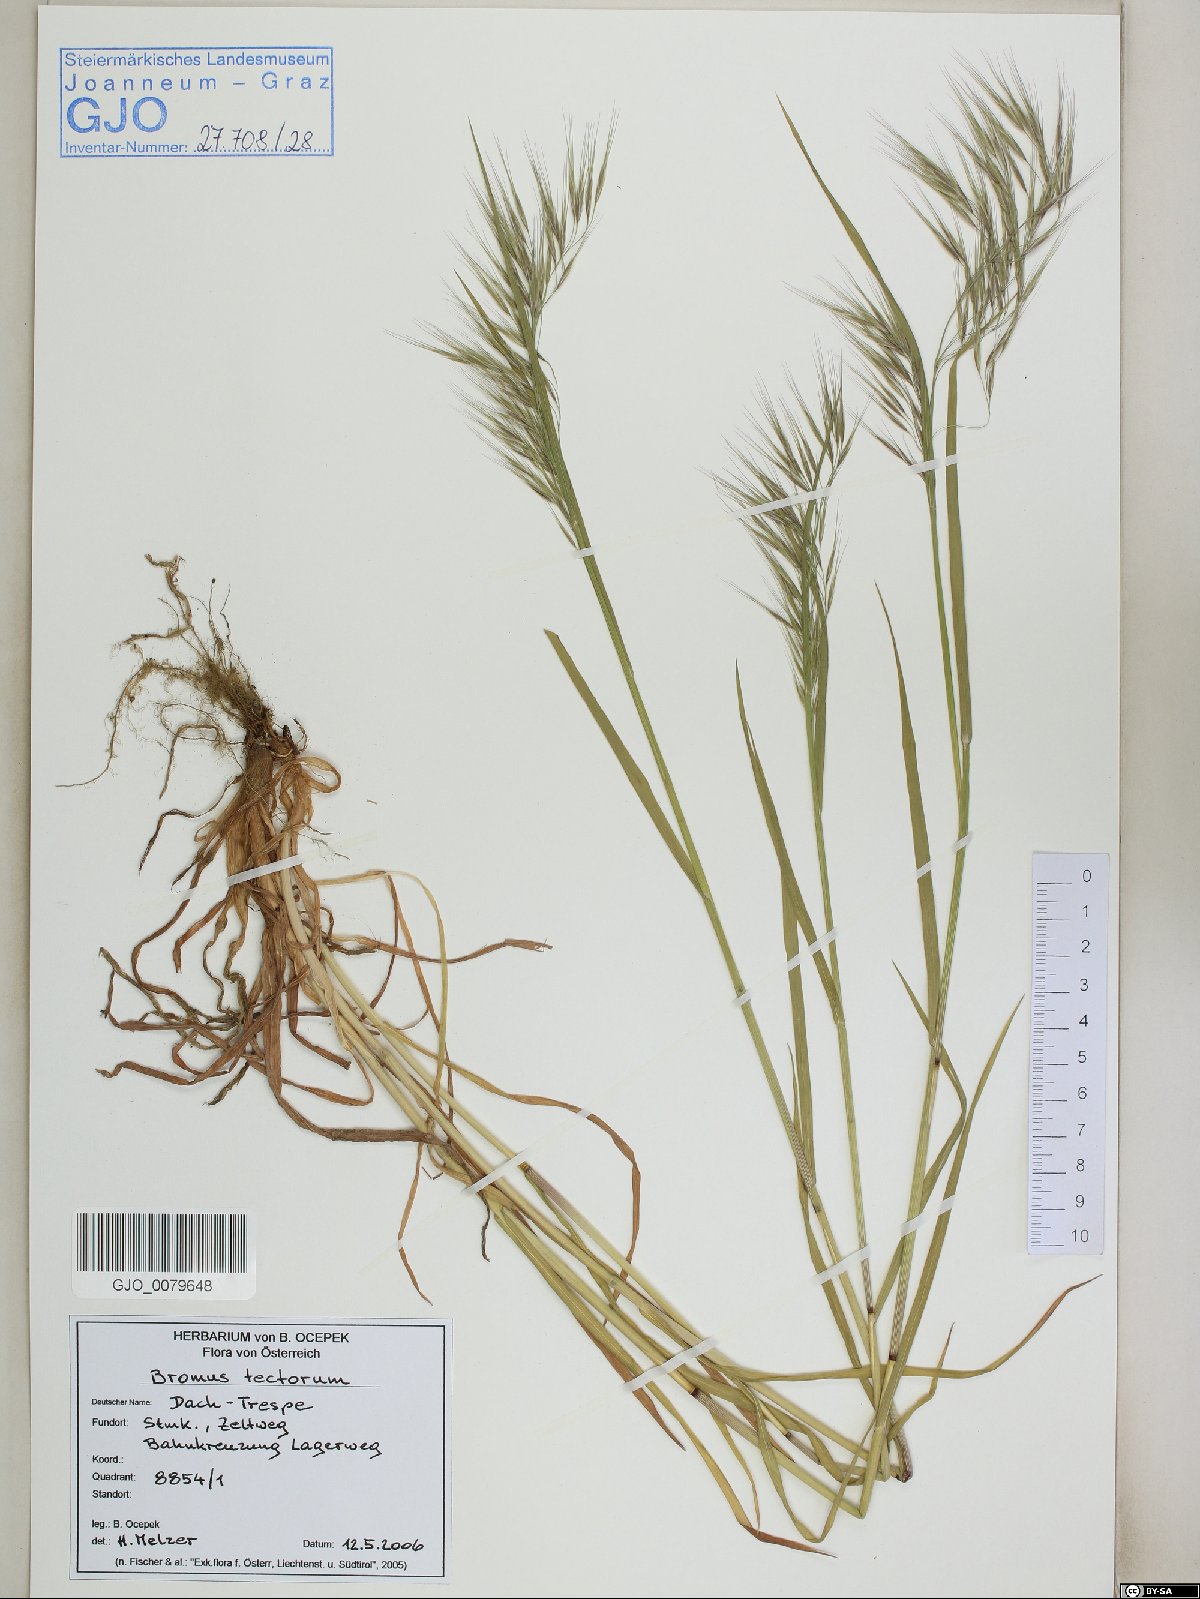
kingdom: Plantae
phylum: Tracheophyta
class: Liliopsida
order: Poales
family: Poaceae
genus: Bromus
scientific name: Bromus tectorum
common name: Cheatgrass
